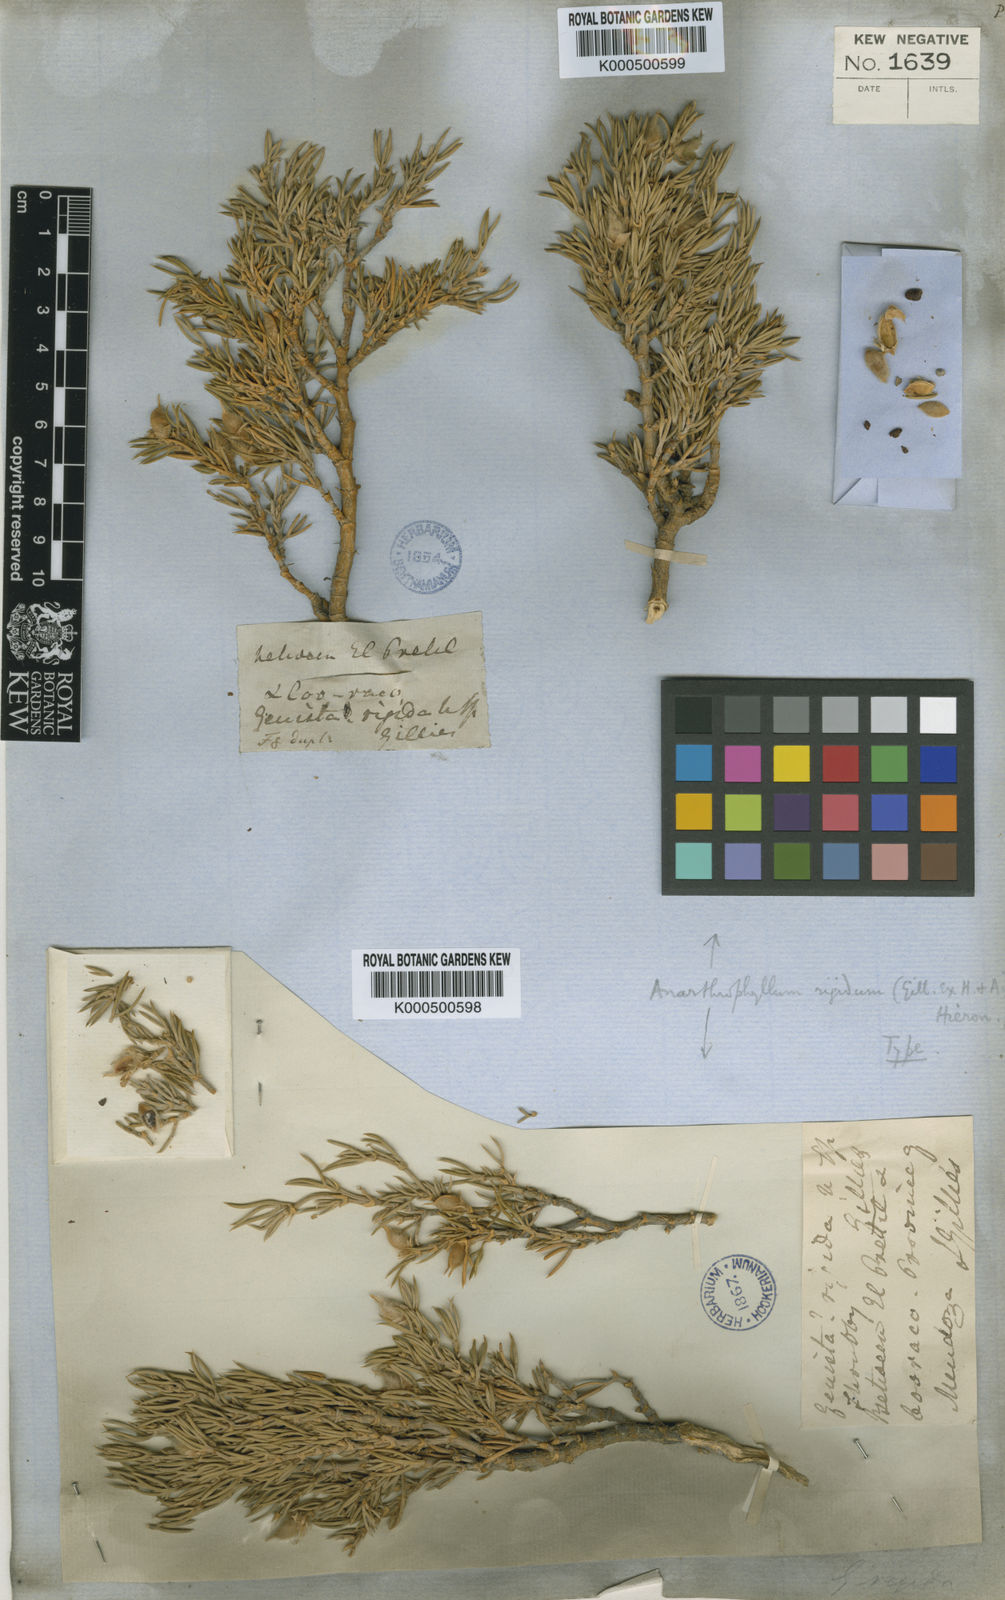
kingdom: Plantae
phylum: Tracheophyta
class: Magnoliopsida
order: Fabales
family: Fabaceae
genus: Anarthrophyllum
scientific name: Anarthrophyllum rigidum
